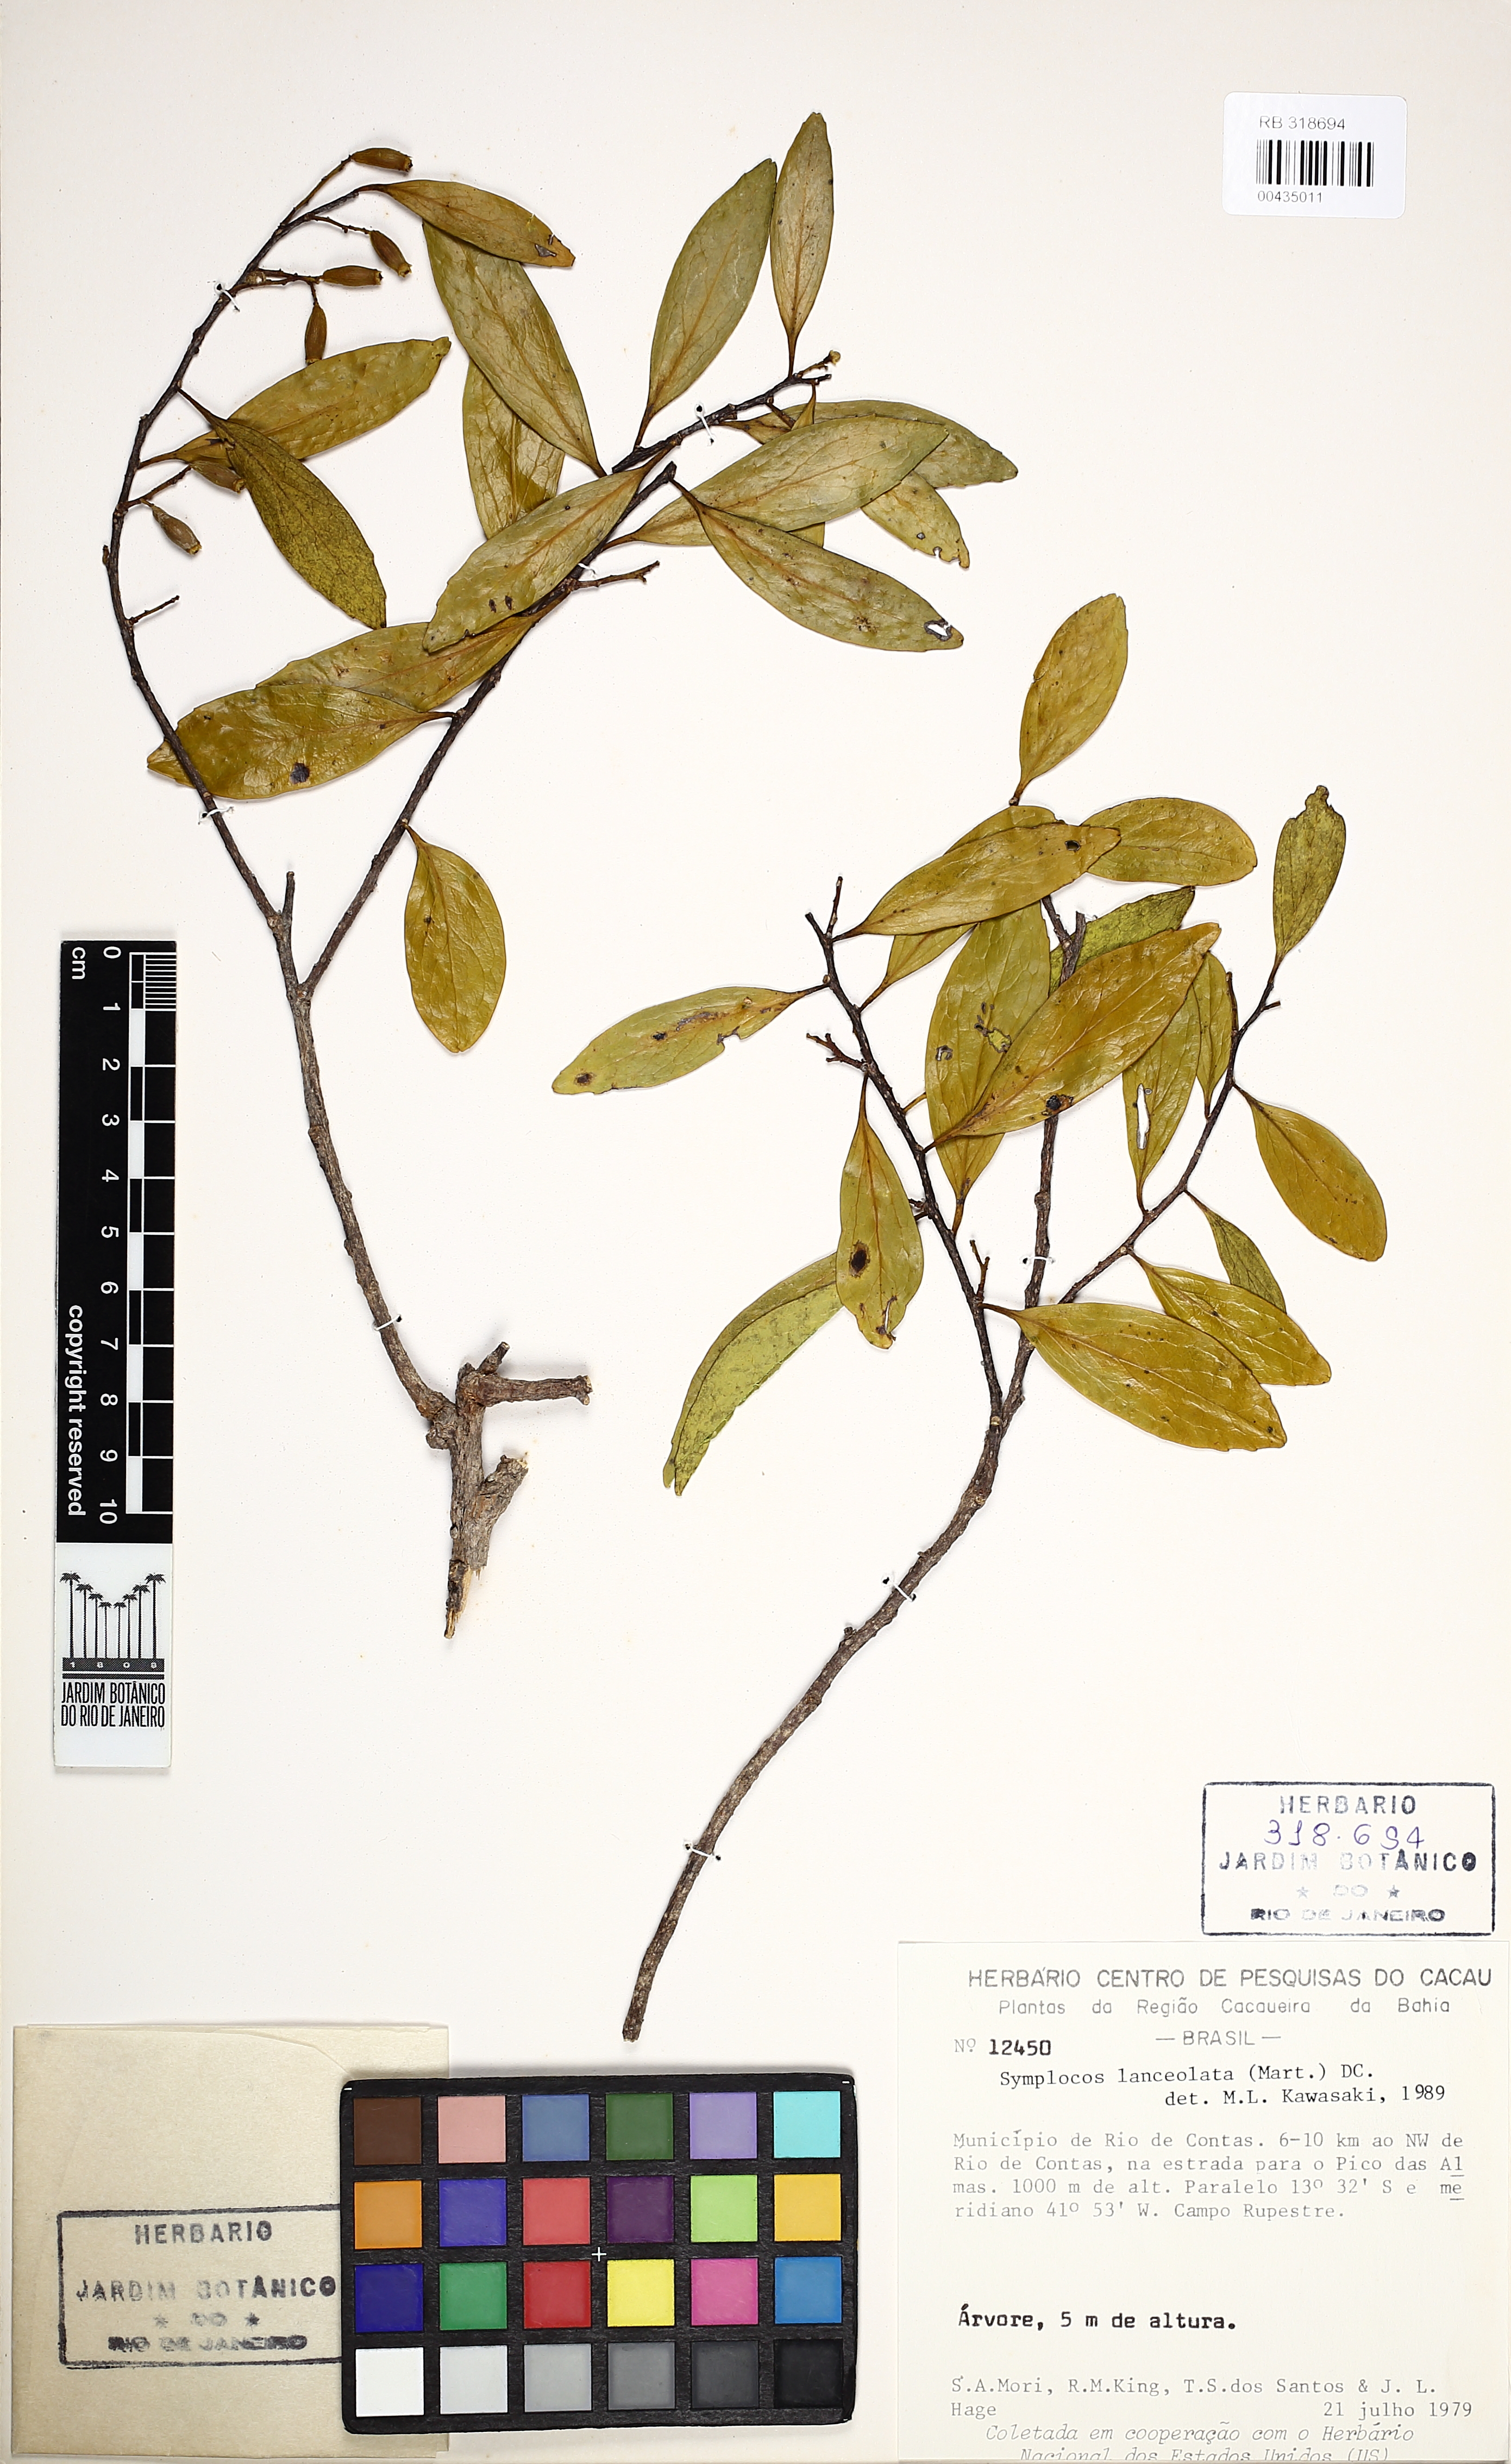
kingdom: Plantae
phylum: Tracheophyta
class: Magnoliopsida
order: Ericales
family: Symplocaceae
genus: Symplocos
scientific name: Symplocos oblongifolia
